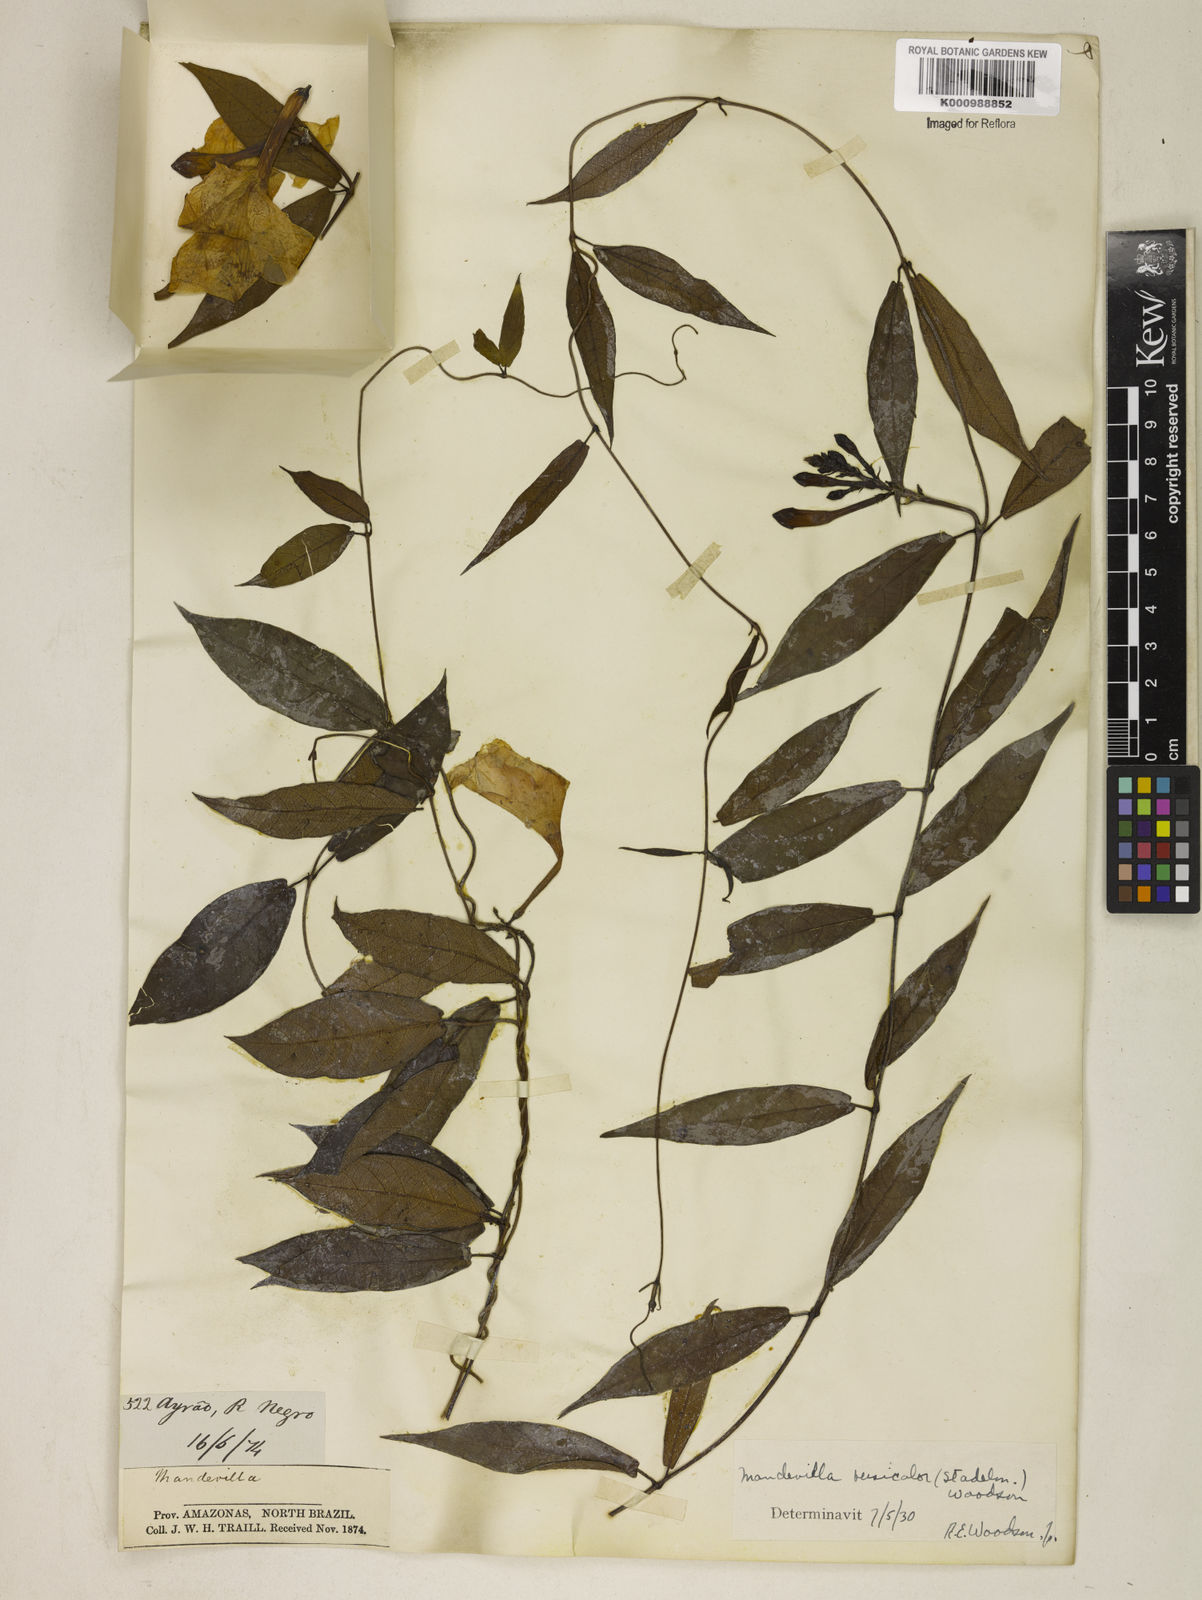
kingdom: Plantae
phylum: Tracheophyta
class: Magnoliopsida
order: Gentianales
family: Apocynaceae
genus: Mandevilla
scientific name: Mandevilla scabra
